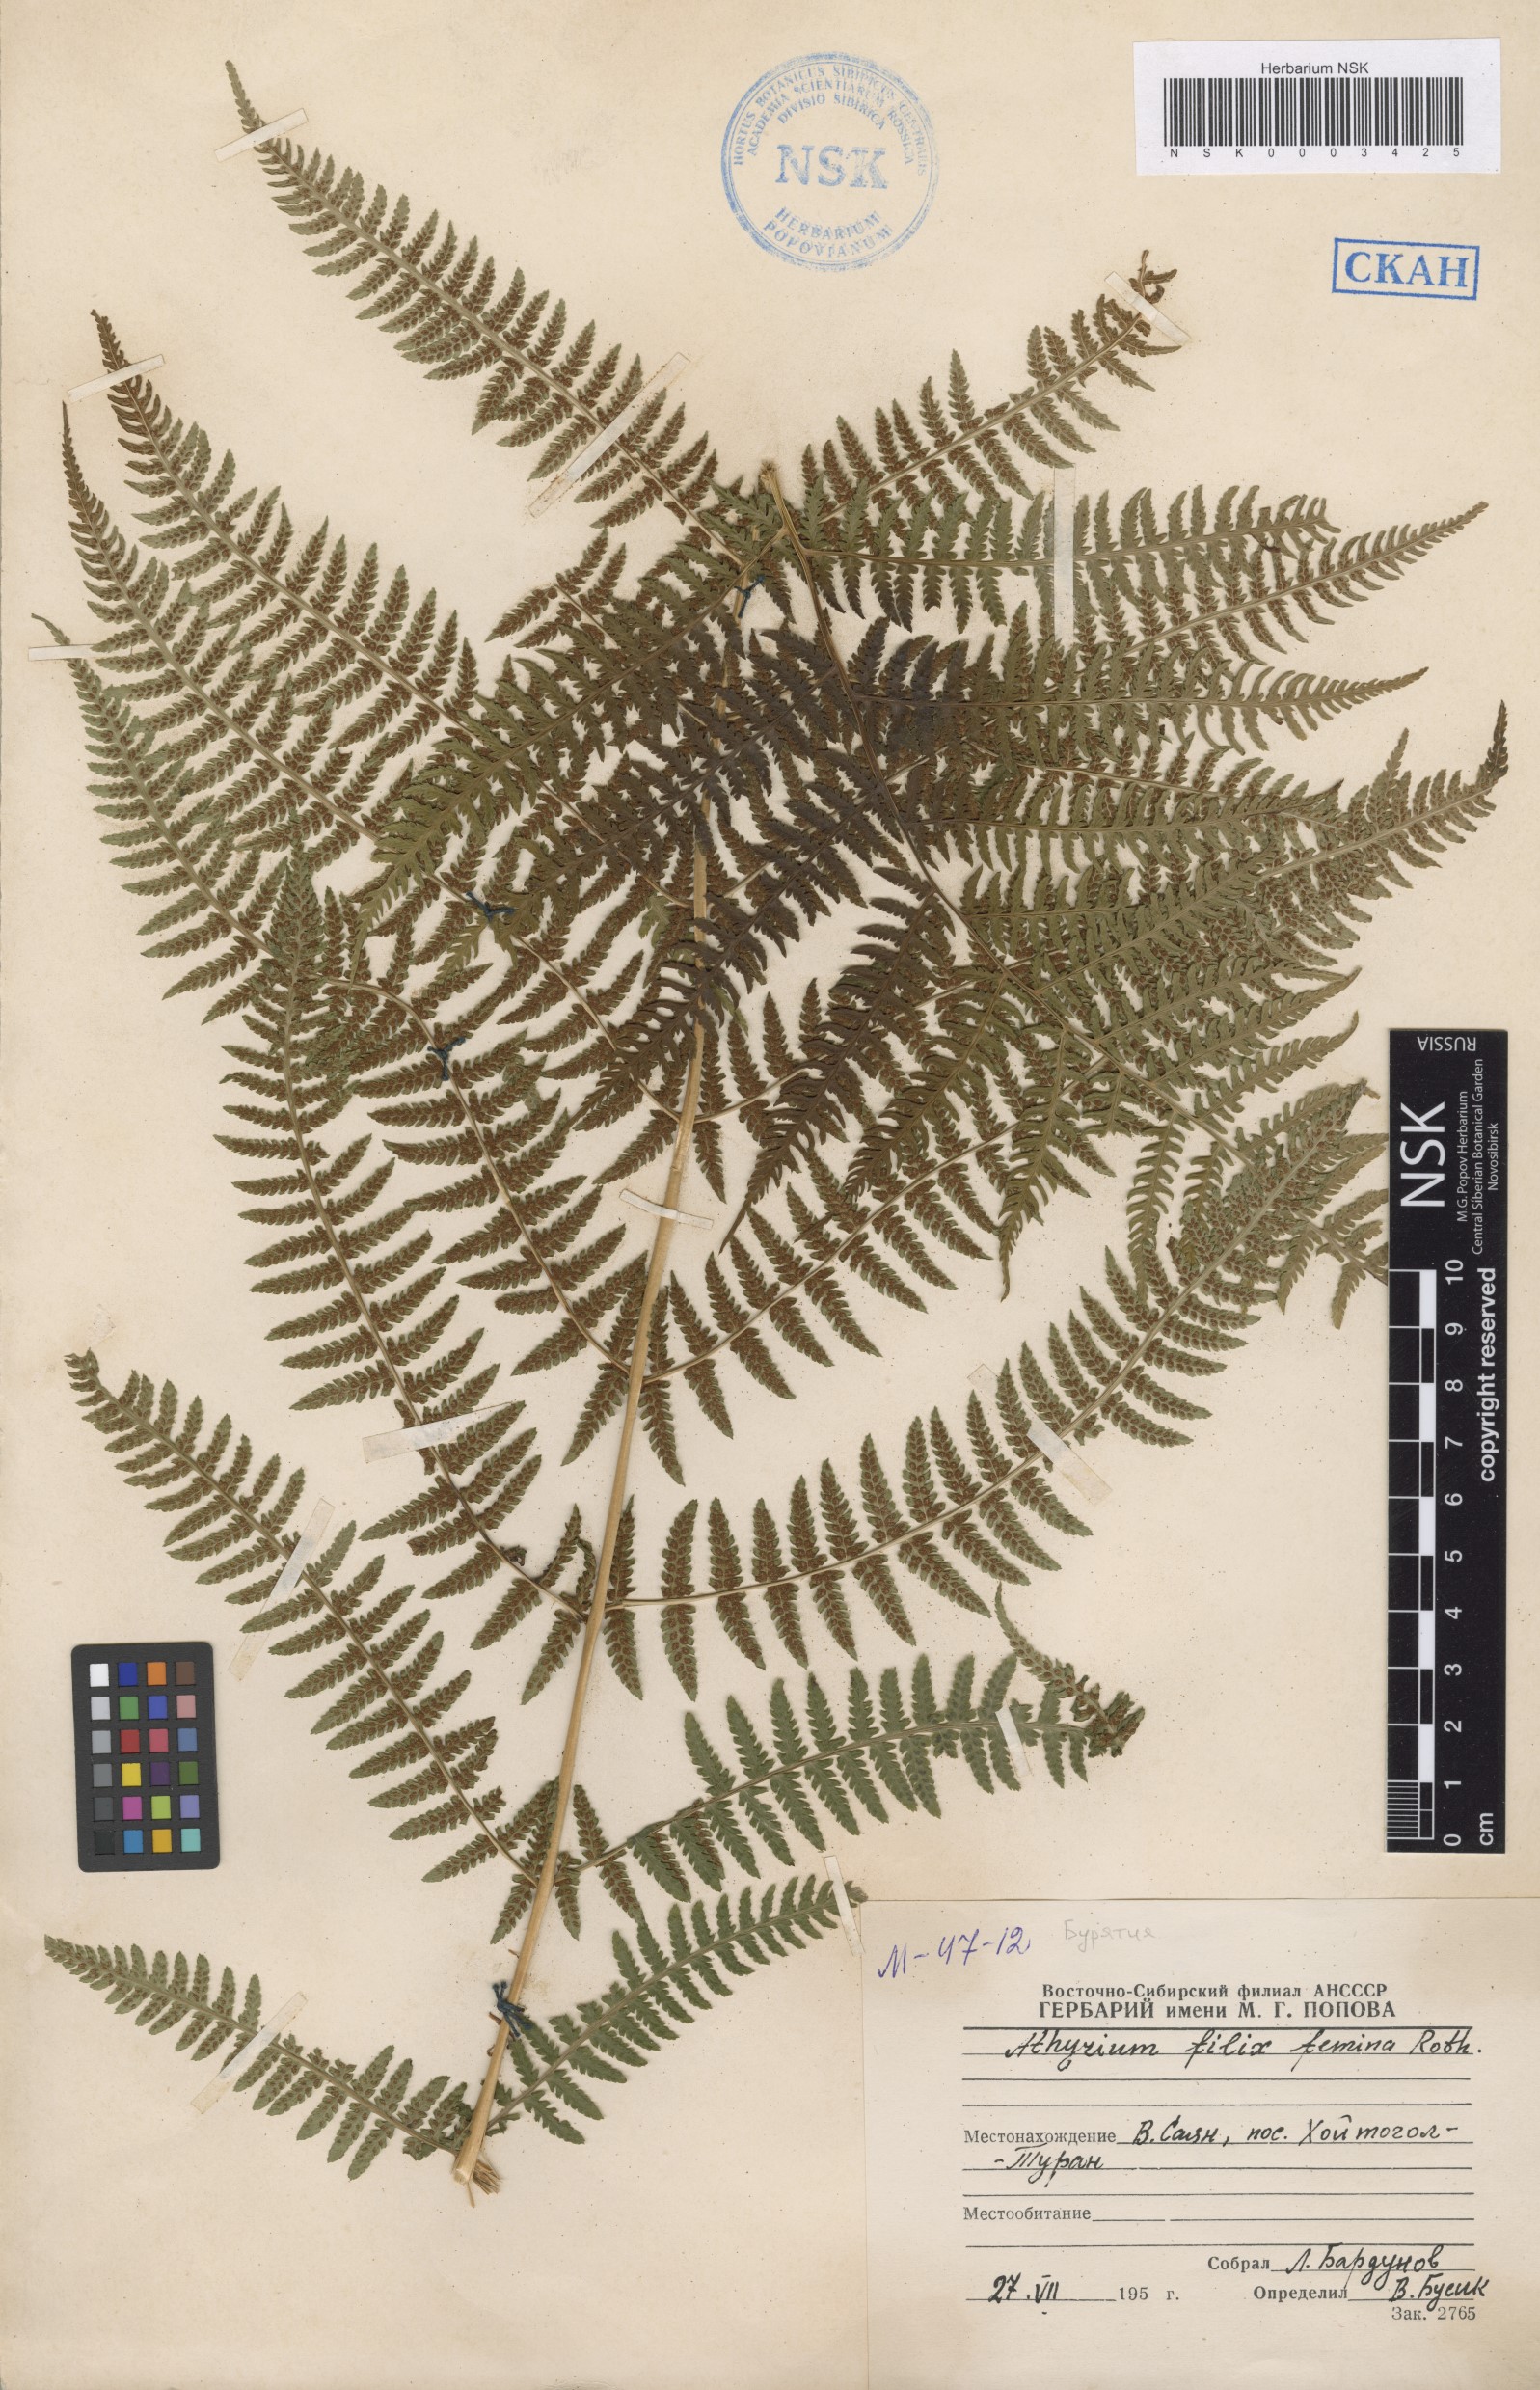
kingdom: Plantae
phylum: Tracheophyta
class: Polypodiopsida
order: Polypodiales
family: Athyriaceae
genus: Athyrium
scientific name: Athyrium filix-femina
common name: Lady fern
